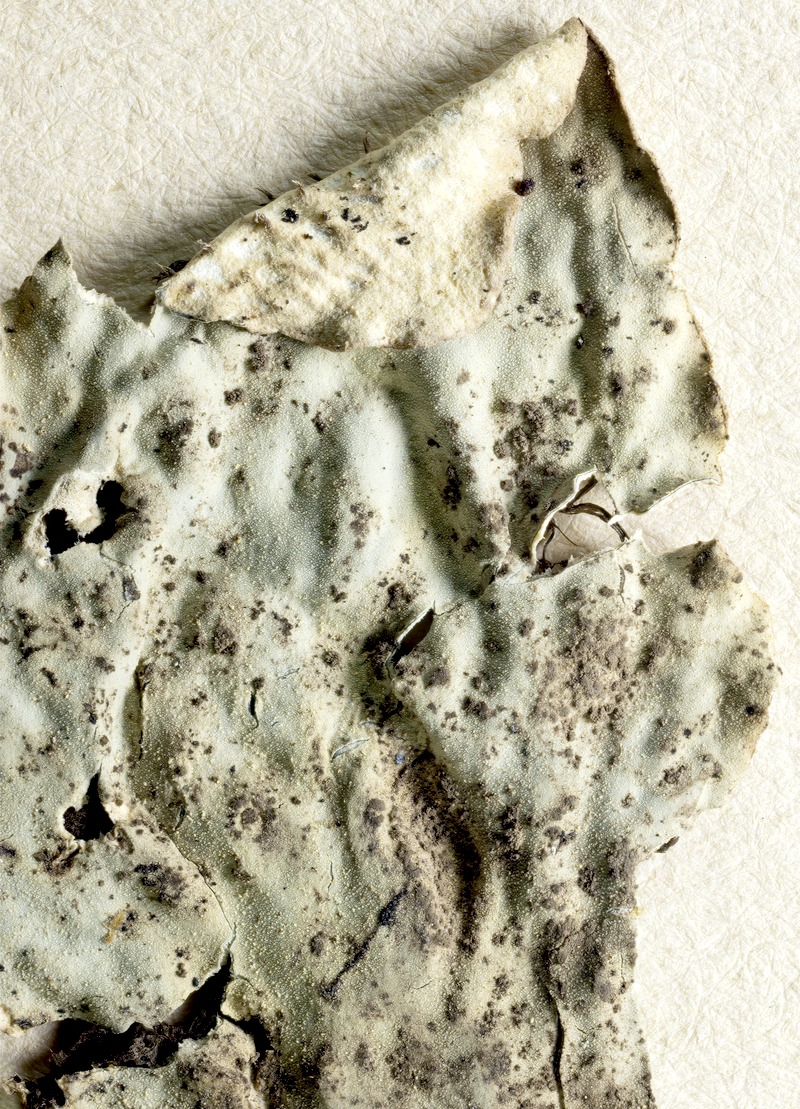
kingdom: Fungi
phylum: Ascomycota
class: Dothideomycetes
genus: Hobsoniopsis
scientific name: Hobsoniopsis santessonii
